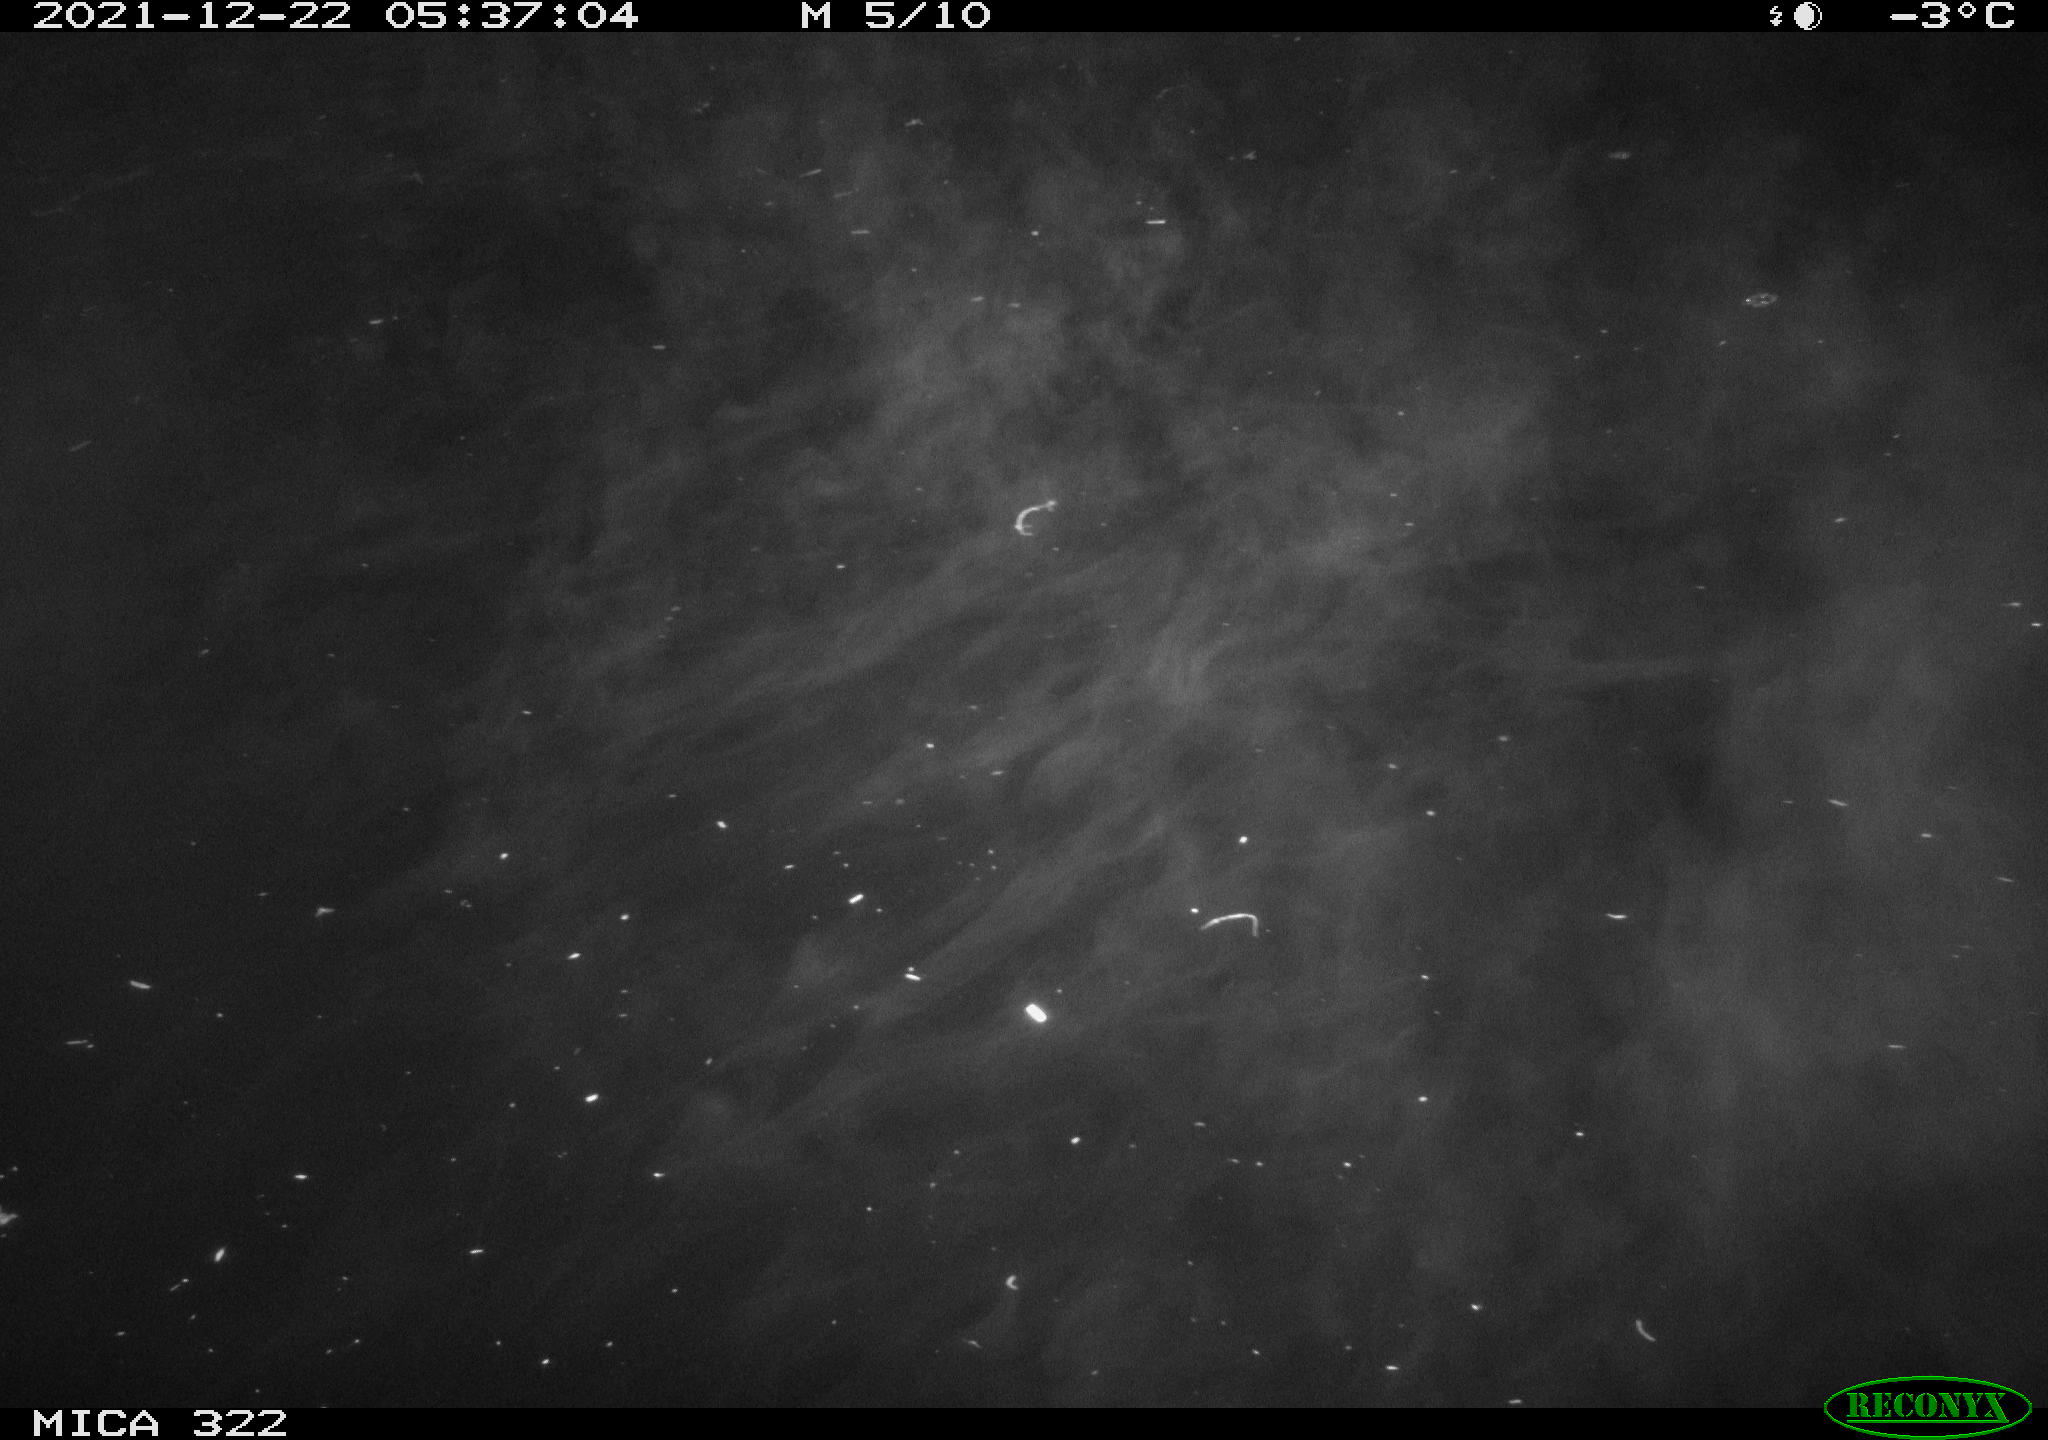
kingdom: Animalia
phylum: Chordata
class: Aves
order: Anseriformes
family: Anatidae
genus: Anas
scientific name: Anas
